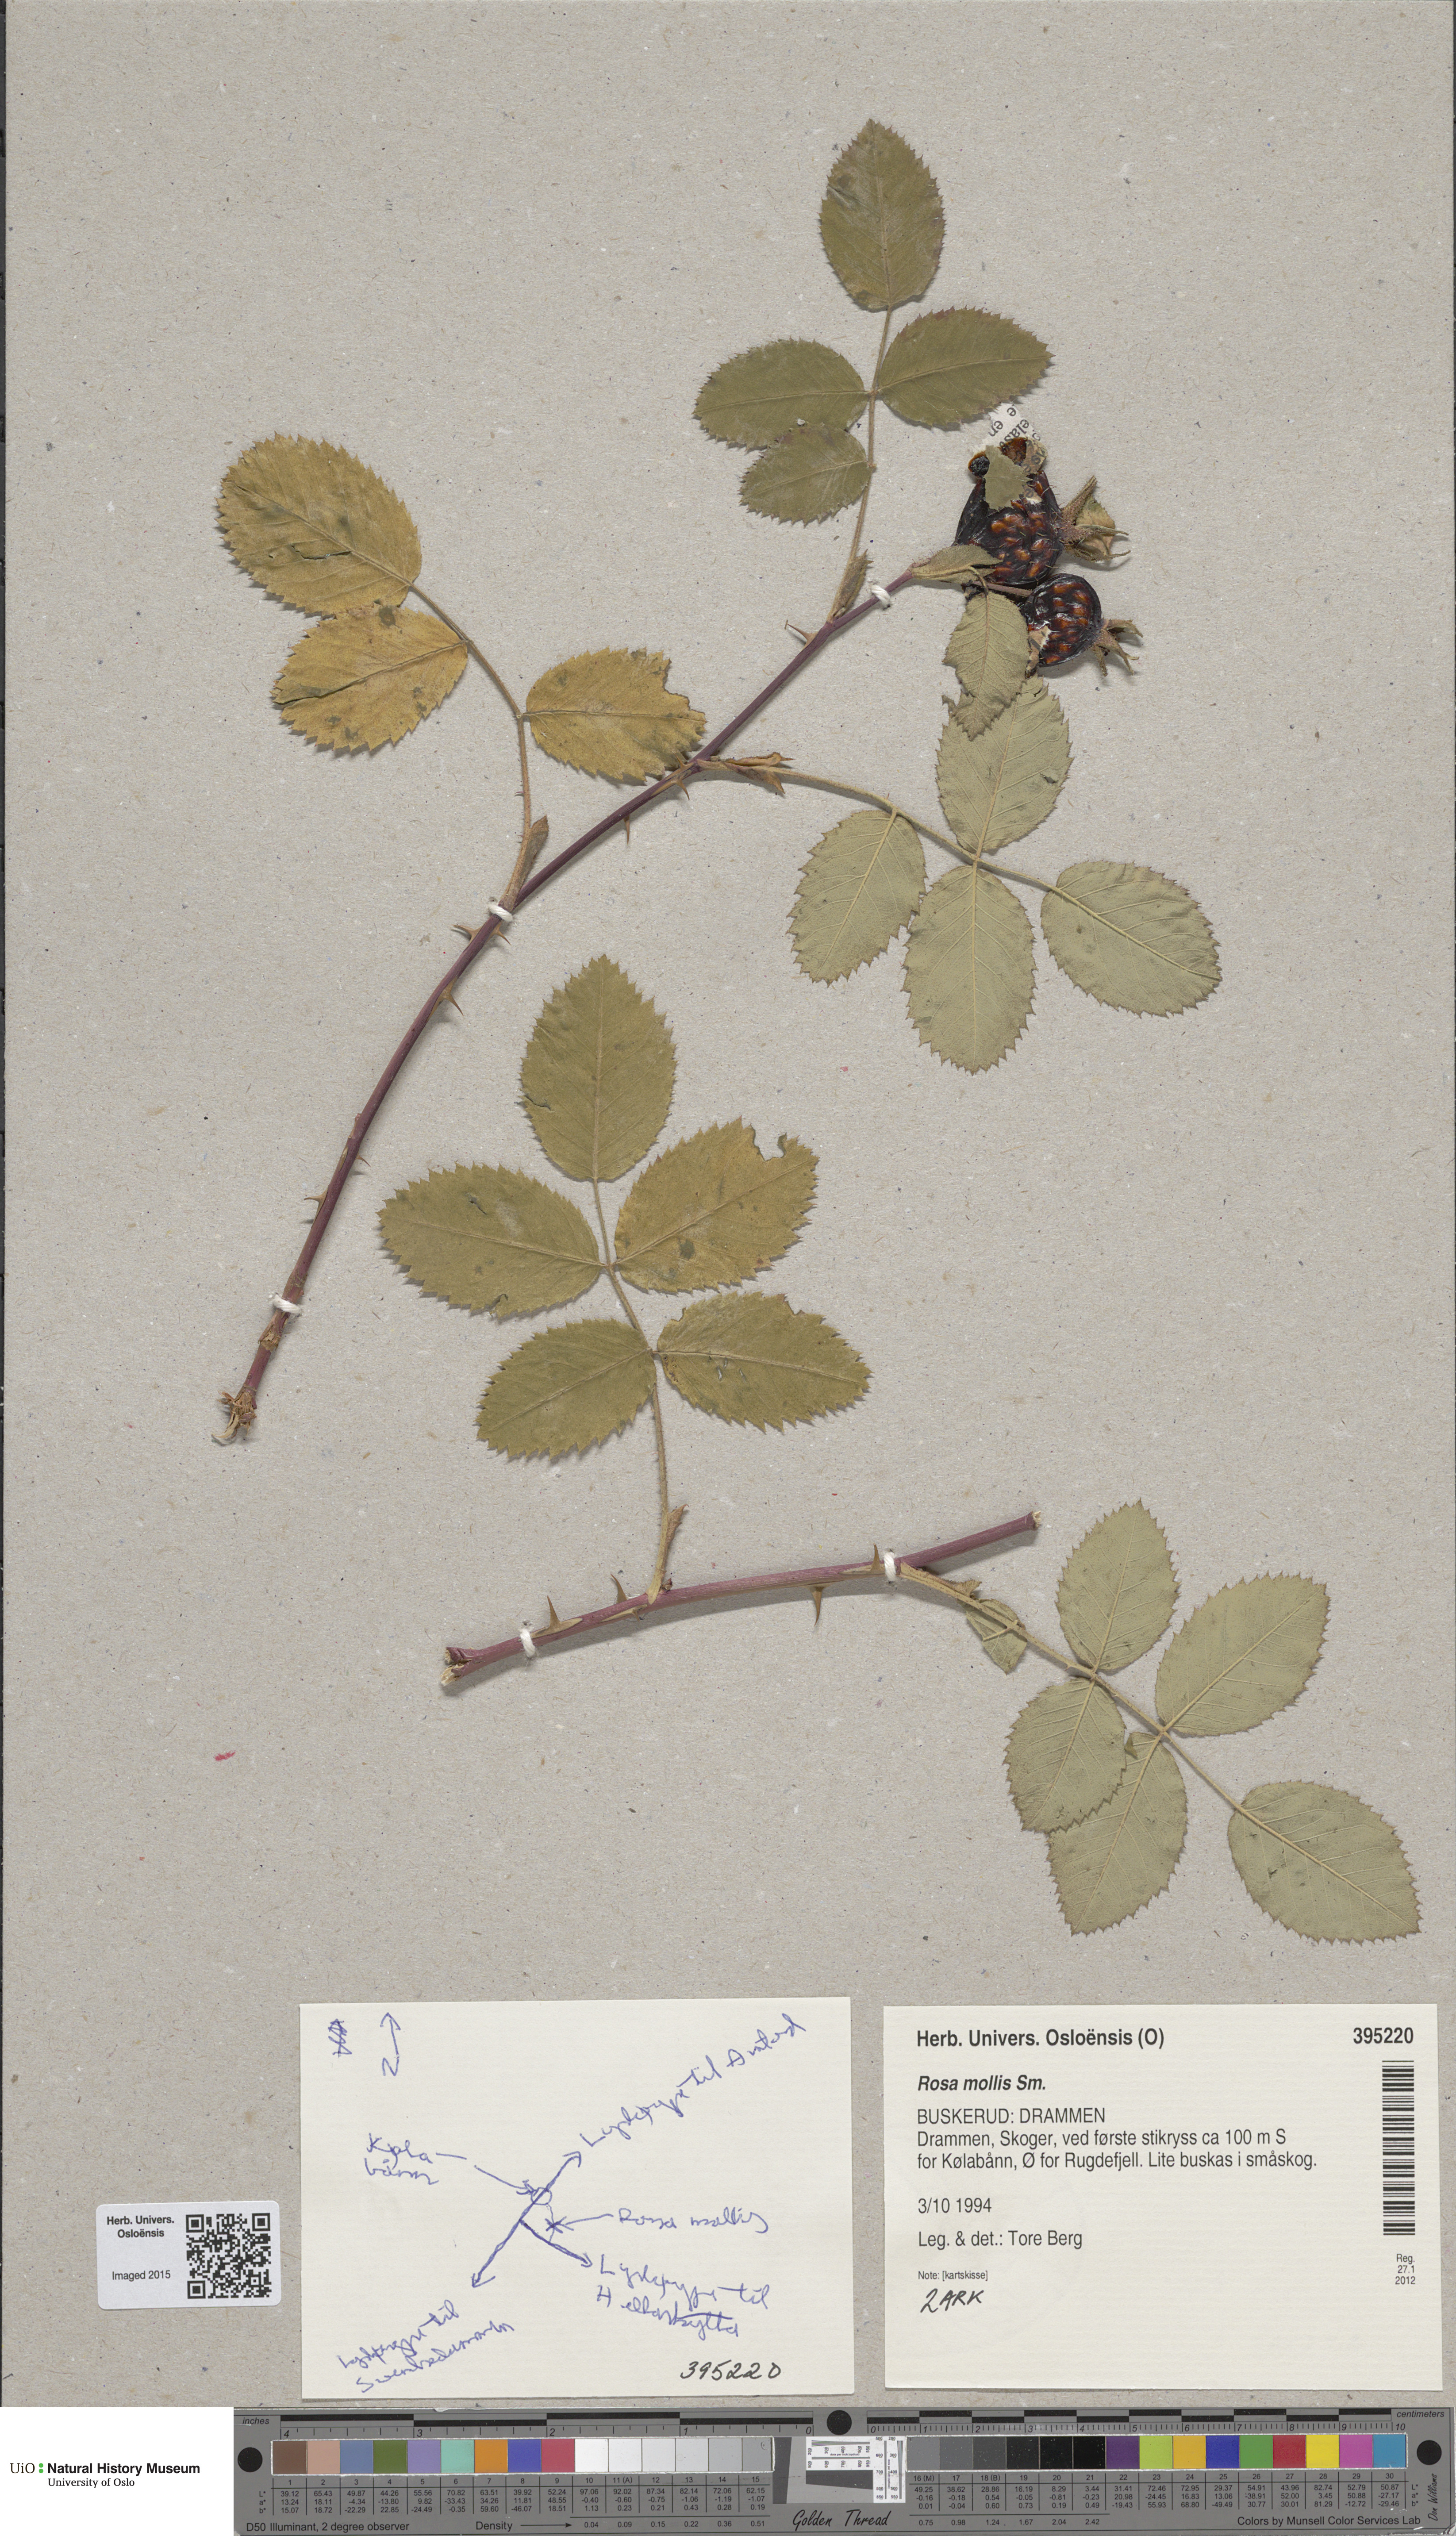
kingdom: Plantae
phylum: Tracheophyta
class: Magnoliopsida
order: Rosales
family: Rosaceae
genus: Rosa
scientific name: Rosa mollis
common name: Rose
